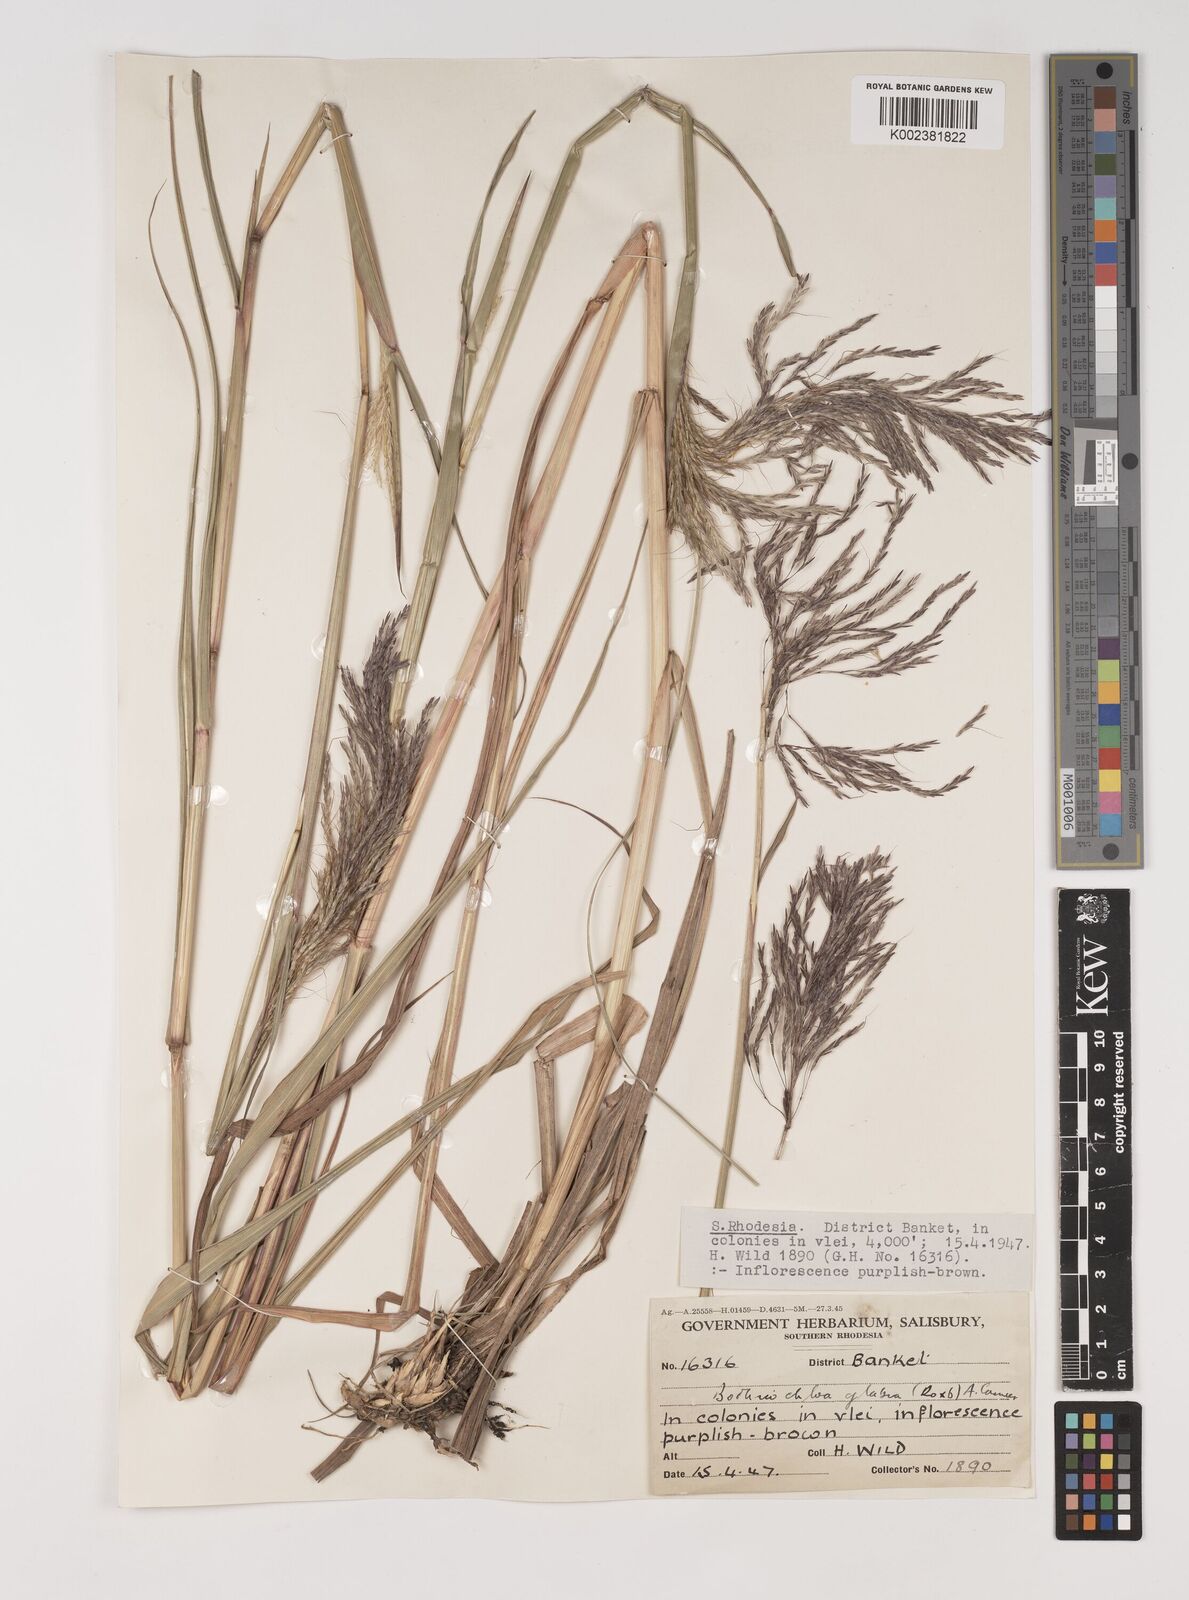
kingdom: Plantae
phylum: Tracheophyta
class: Liliopsida
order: Poales
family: Poaceae
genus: Bothriochloa
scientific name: Bothriochloa bladhii
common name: Caucasian bluestem
